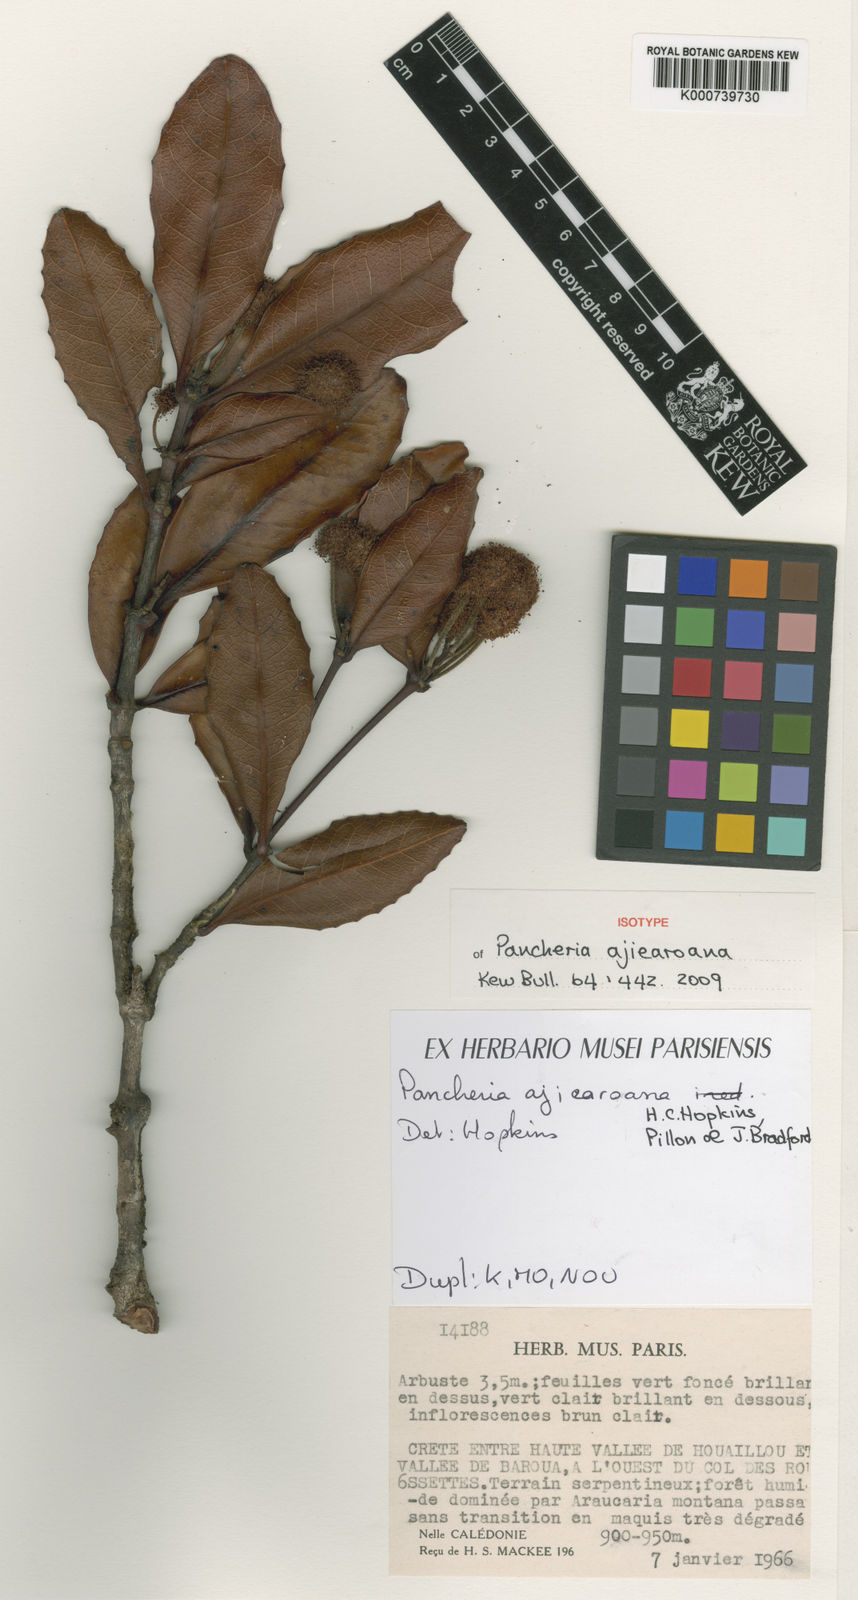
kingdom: Plantae
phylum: Tracheophyta
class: Magnoliopsida
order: Oxalidales
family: Cunoniaceae
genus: Pancheria
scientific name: Pancheria ajiearoana
